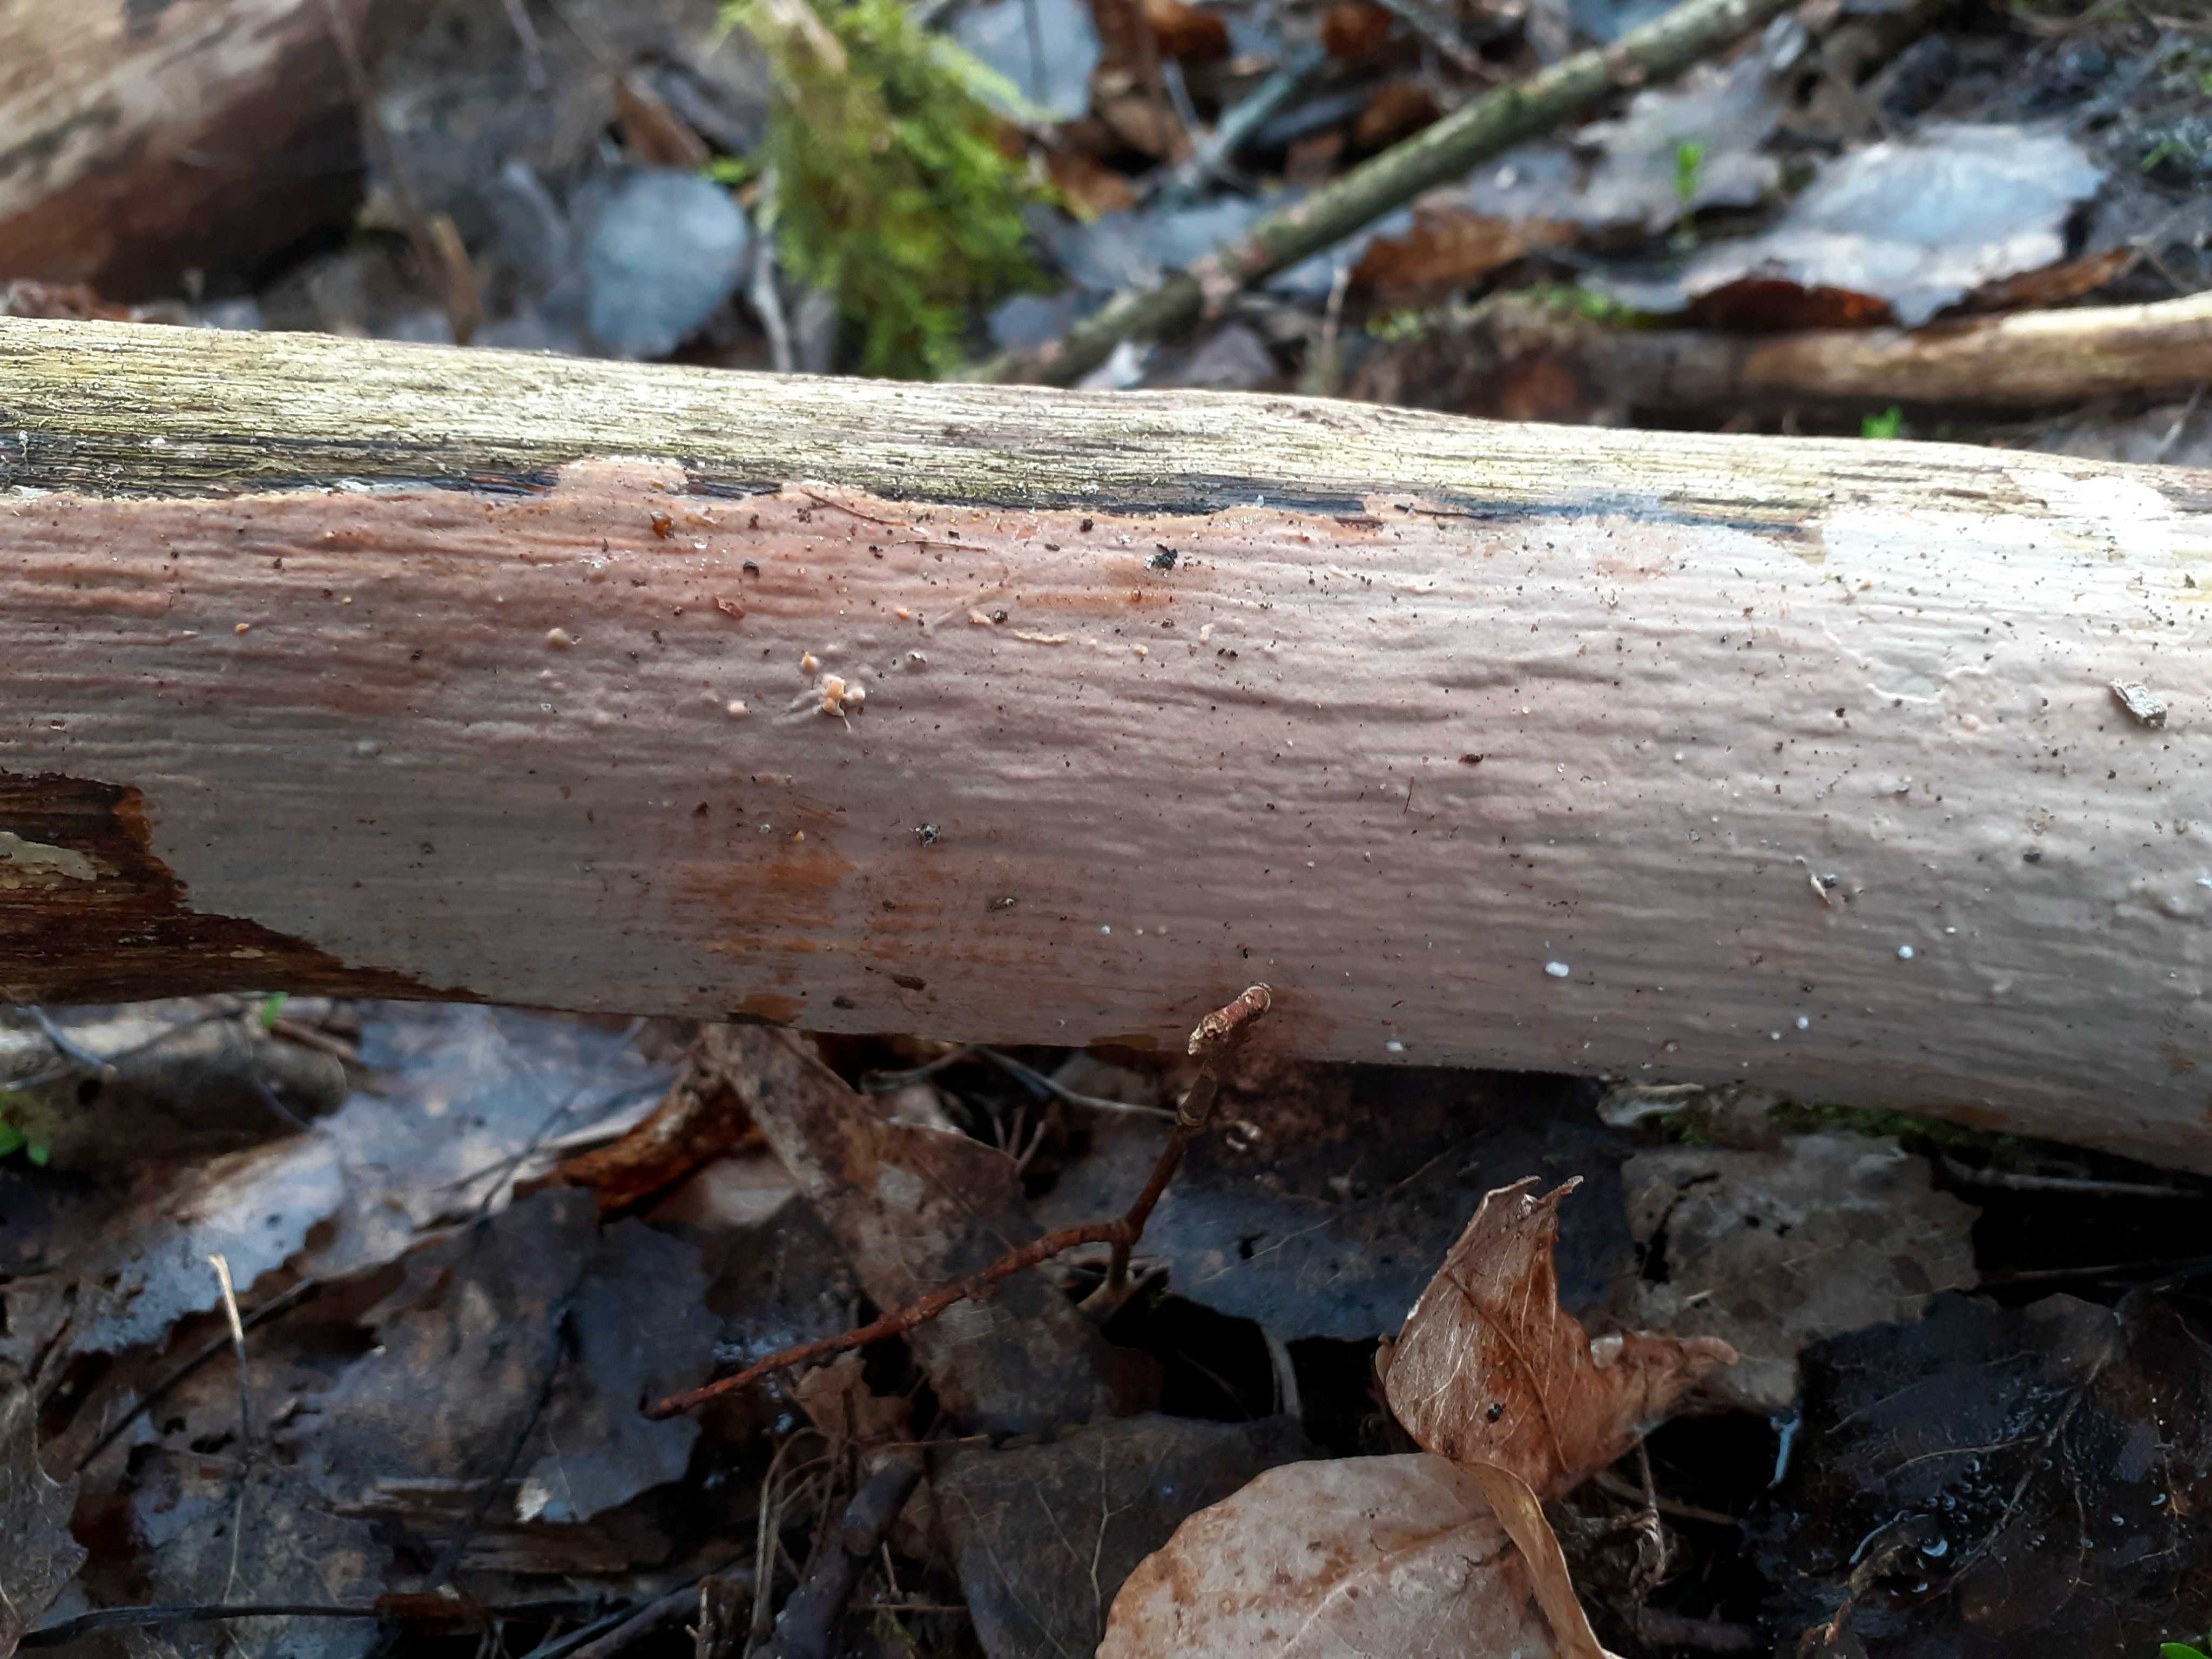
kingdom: Fungi
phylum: Basidiomycota
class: Agaricomycetes
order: Russulales
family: Peniophoraceae
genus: Scytinostroma
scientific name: Scytinostroma hemidichophyticum
